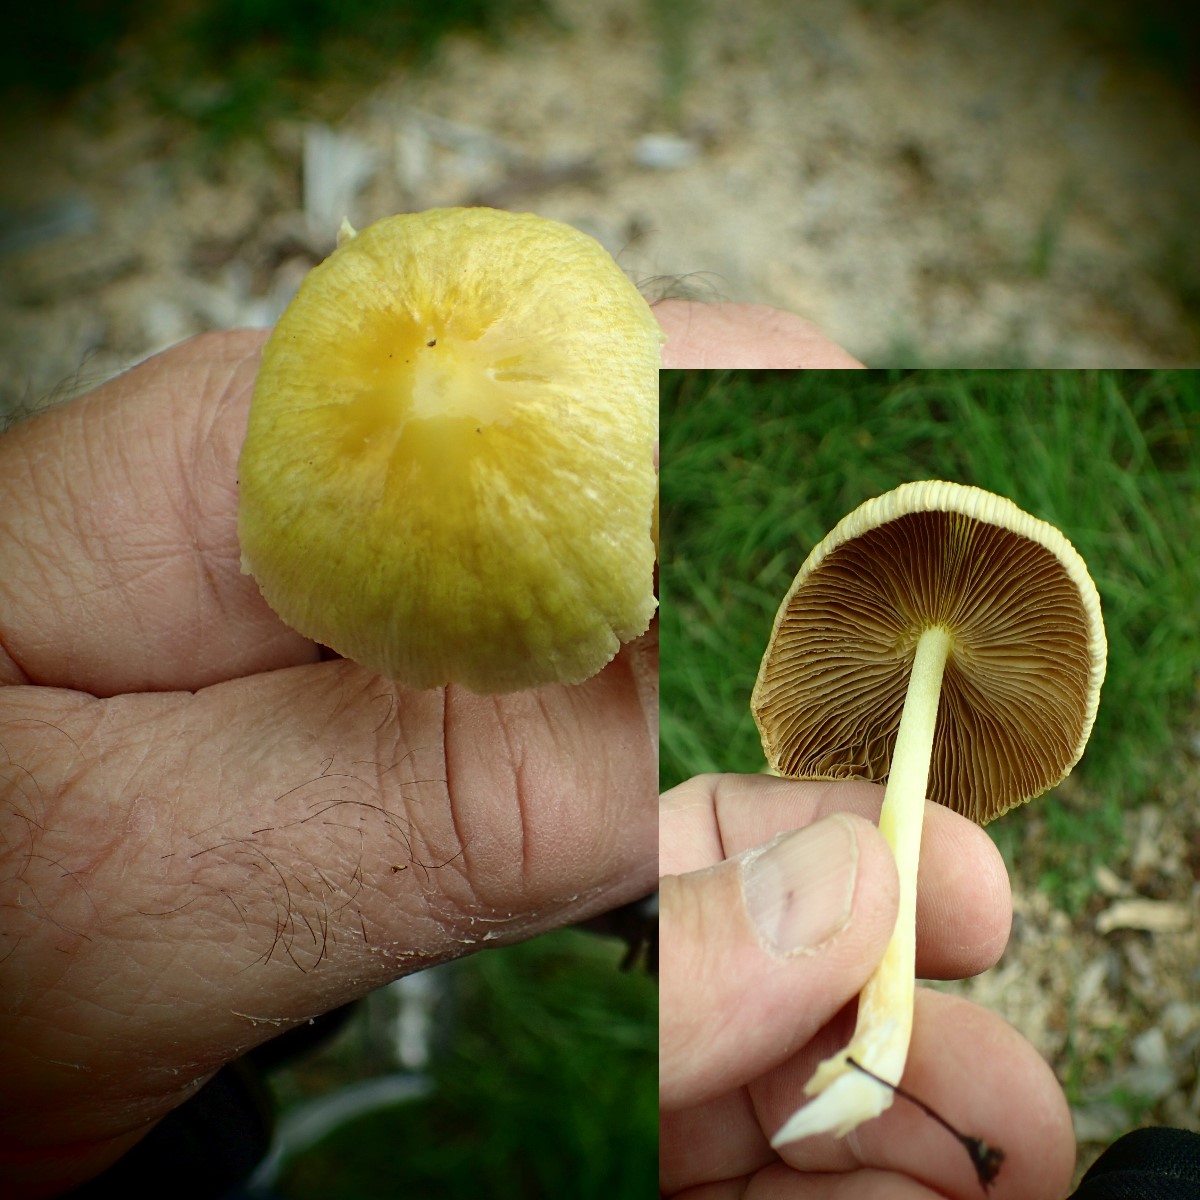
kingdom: Fungi
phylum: Basidiomycota
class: Agaricomycetes
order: Agaricales
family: Bolbitiaceae
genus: Bolbitius
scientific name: Bolbitius titubans
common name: almindelig gulhat
